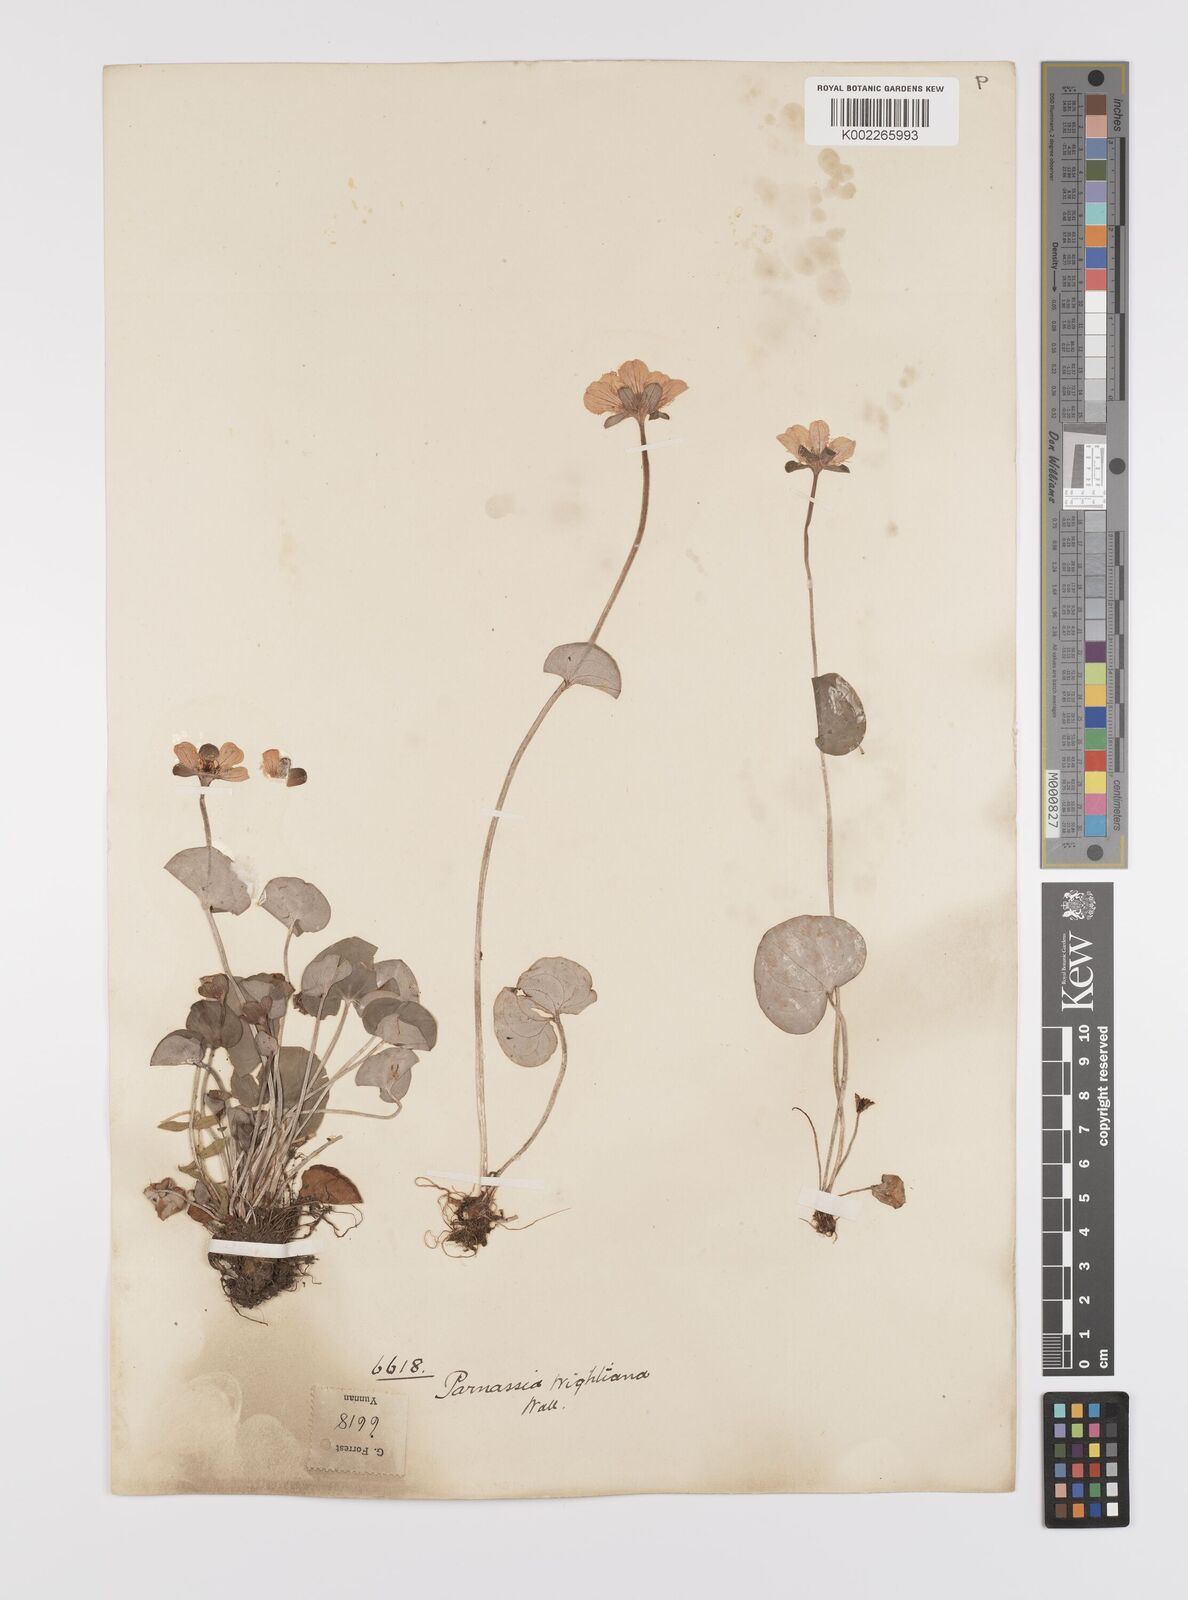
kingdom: Plantae
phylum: Tracheophyta
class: Magnoliopsida
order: Celastrales
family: Parnassiaceae
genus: Parnassia
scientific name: Parnassia wightiana
